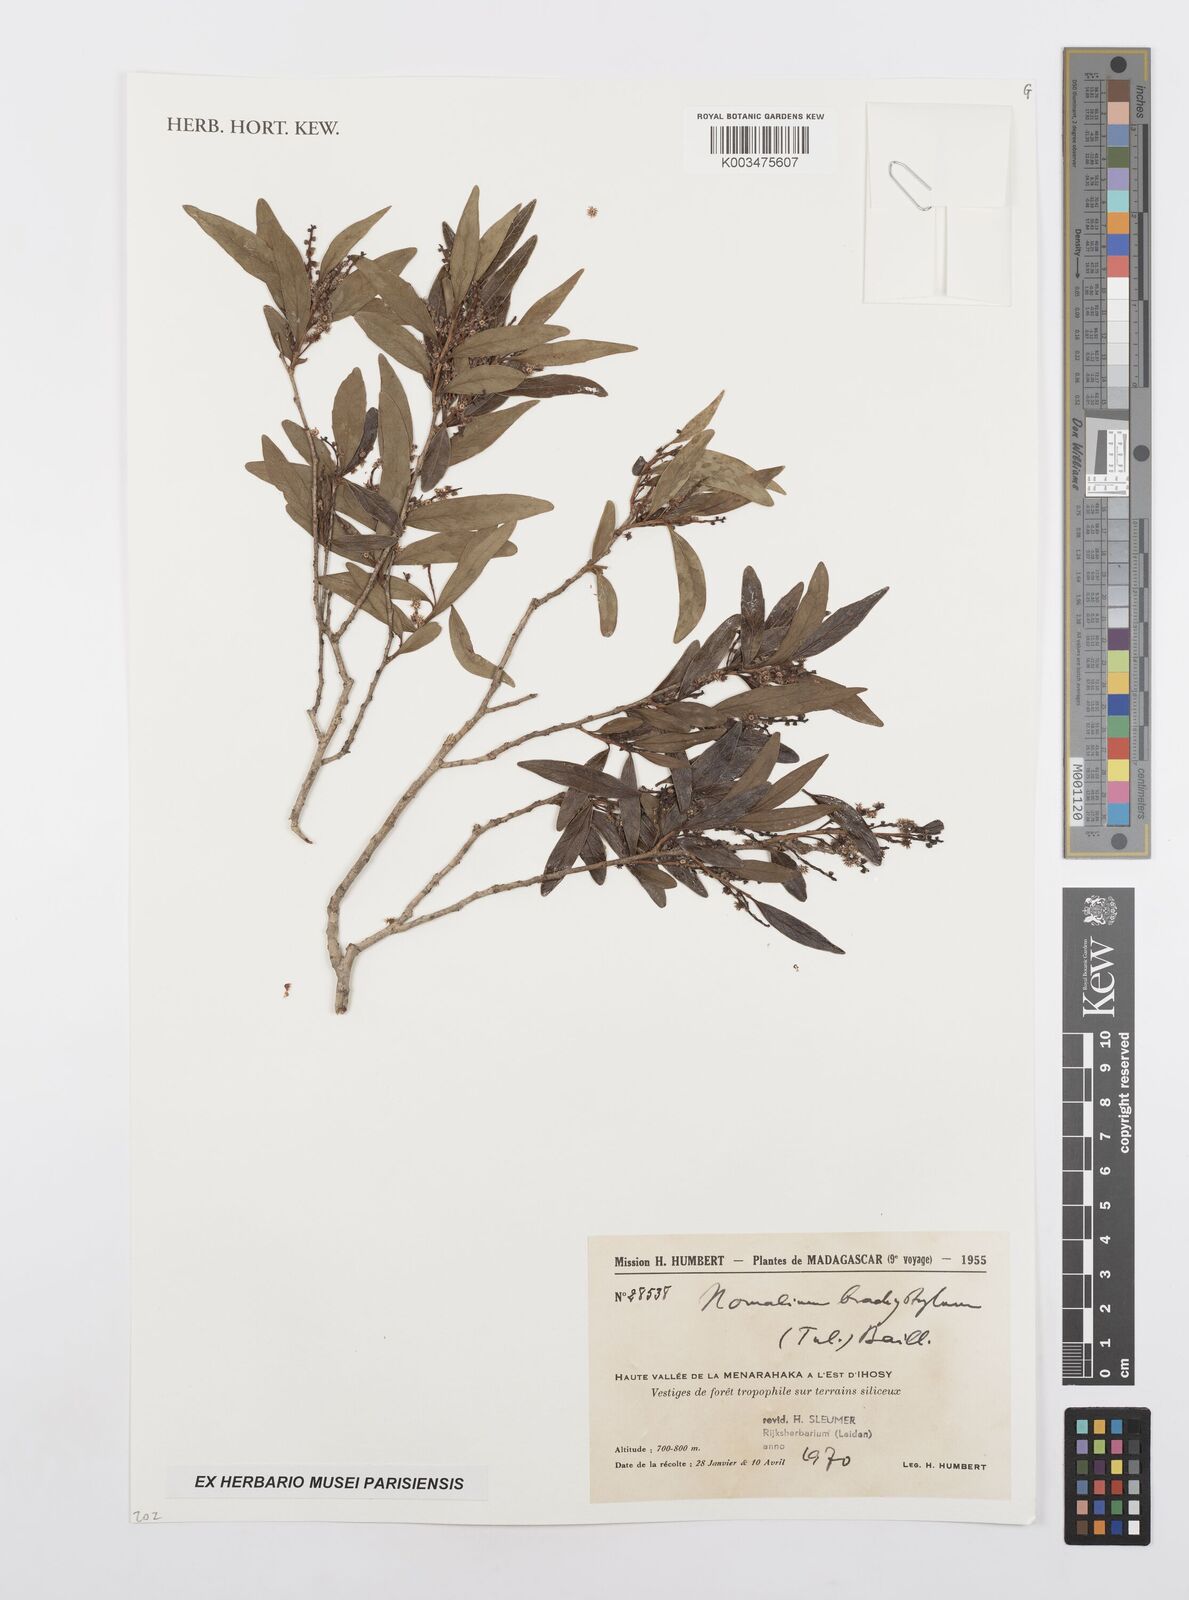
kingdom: Plantae
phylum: Tracheophyta
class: Magnoliopsida
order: Malpighiales
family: Salicaceae
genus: Homalium
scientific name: Homalium brachystylis
